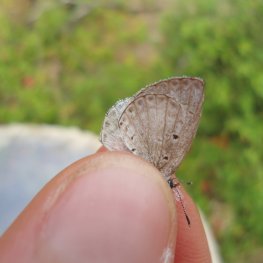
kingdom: Animalia
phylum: Arthropoda
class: Insecta
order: Lepidoptera
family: Lycaenidae
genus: Cyaniris
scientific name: Cyaniris neglecta
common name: Summer Azure
